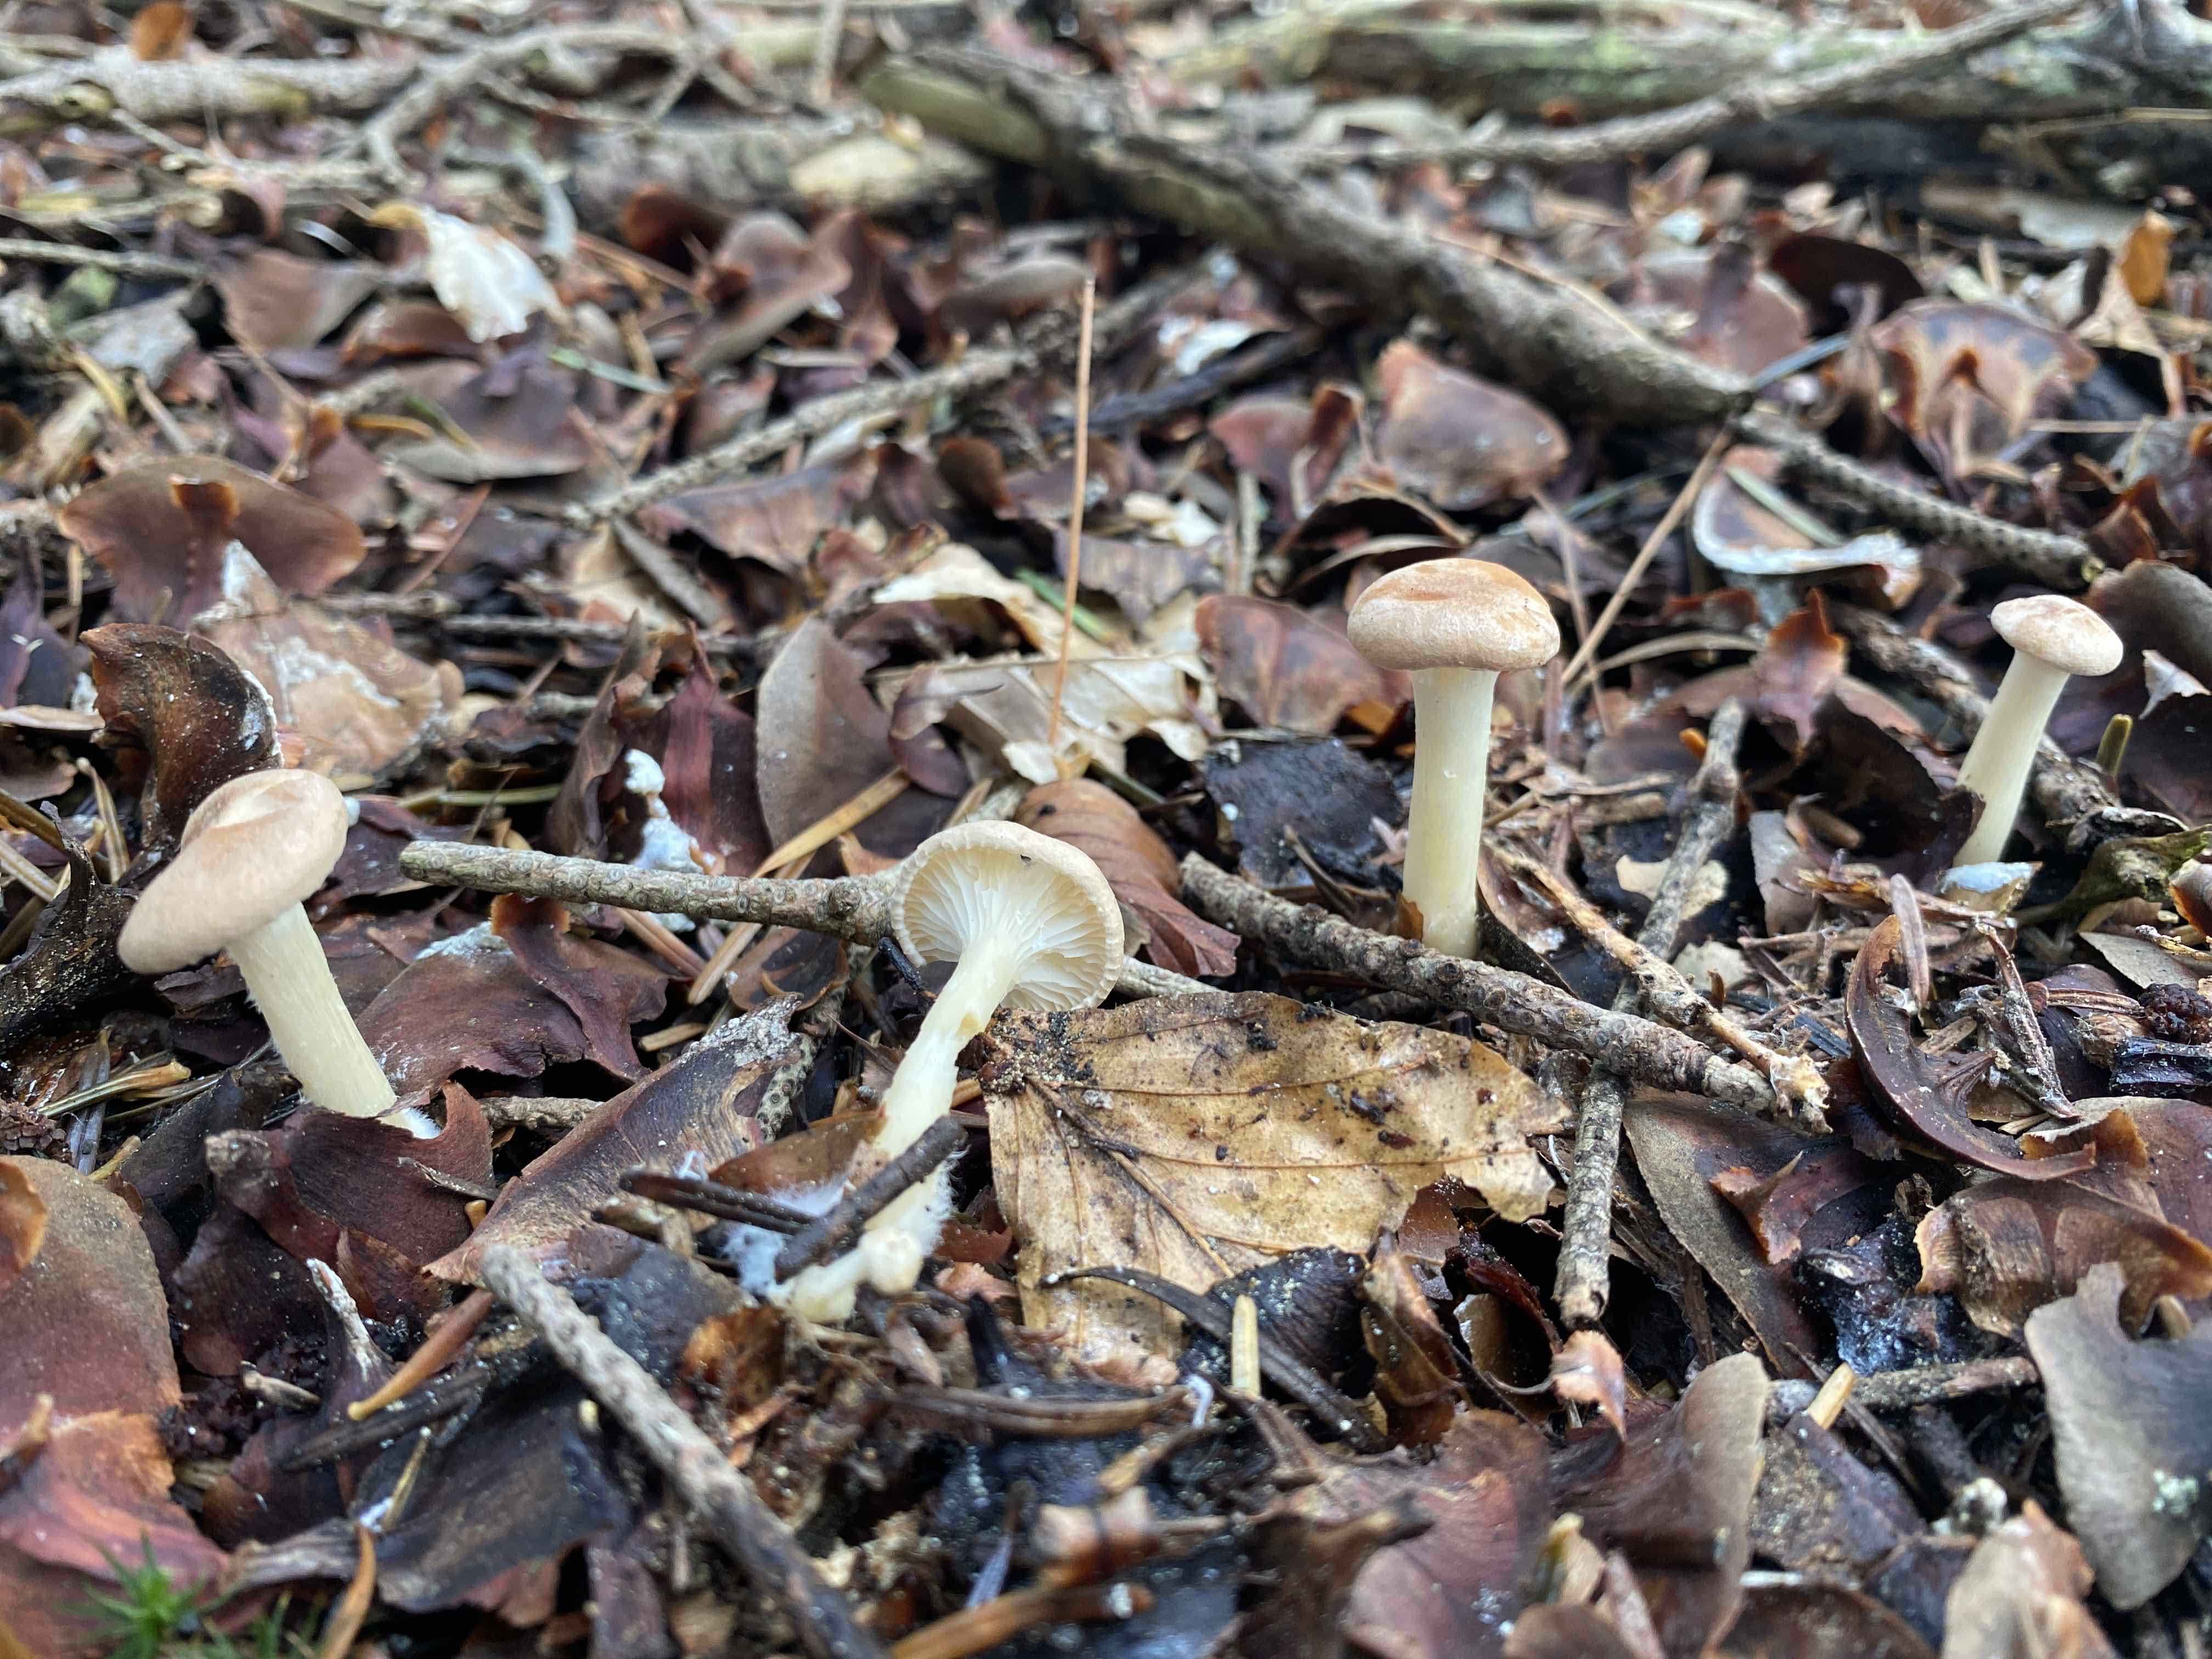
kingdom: Fungi
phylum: Basidiomycota
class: Agaricomycetes
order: Agaricales
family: Tricholomataceae
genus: Infundibulicybe
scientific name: Infundibulicybe gibba
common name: almindelig tragthat
